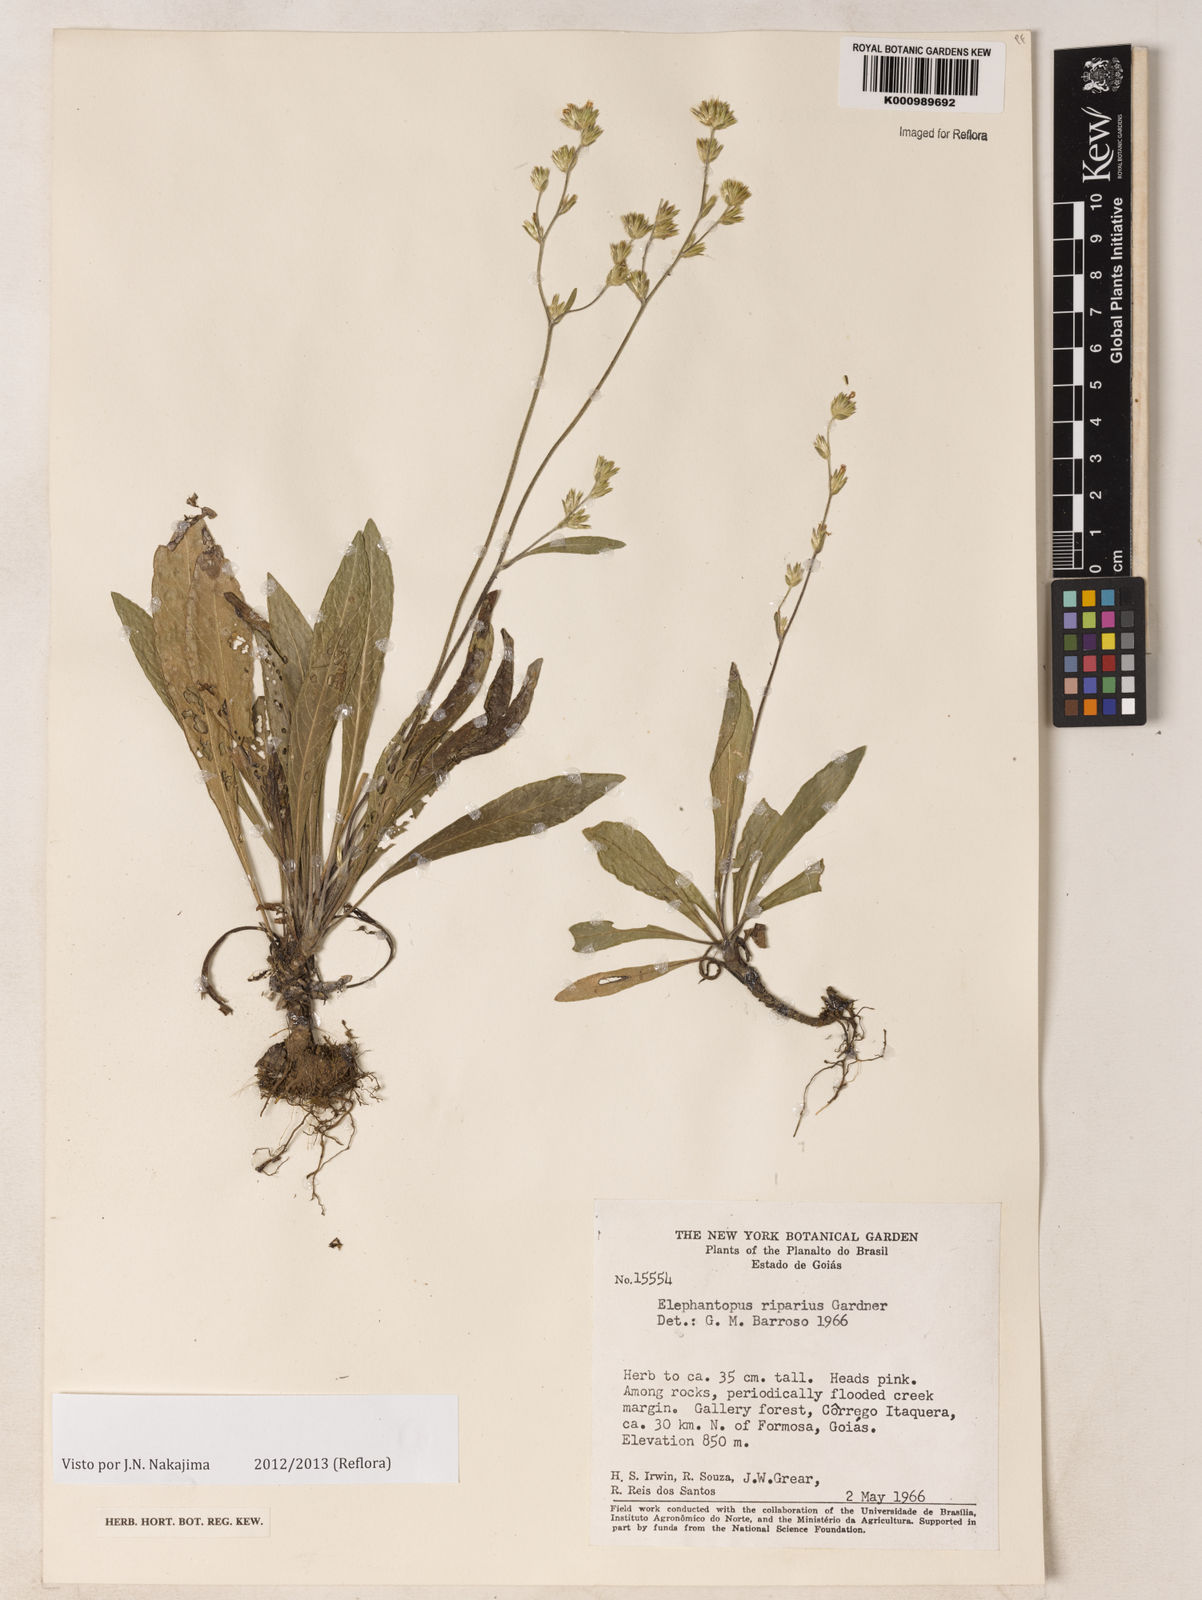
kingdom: Plantae
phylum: Tracheophyta
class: Magnoliopsida
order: Asterales
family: Asteraceae
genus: Elephantopus
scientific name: Elephantopus riparius
